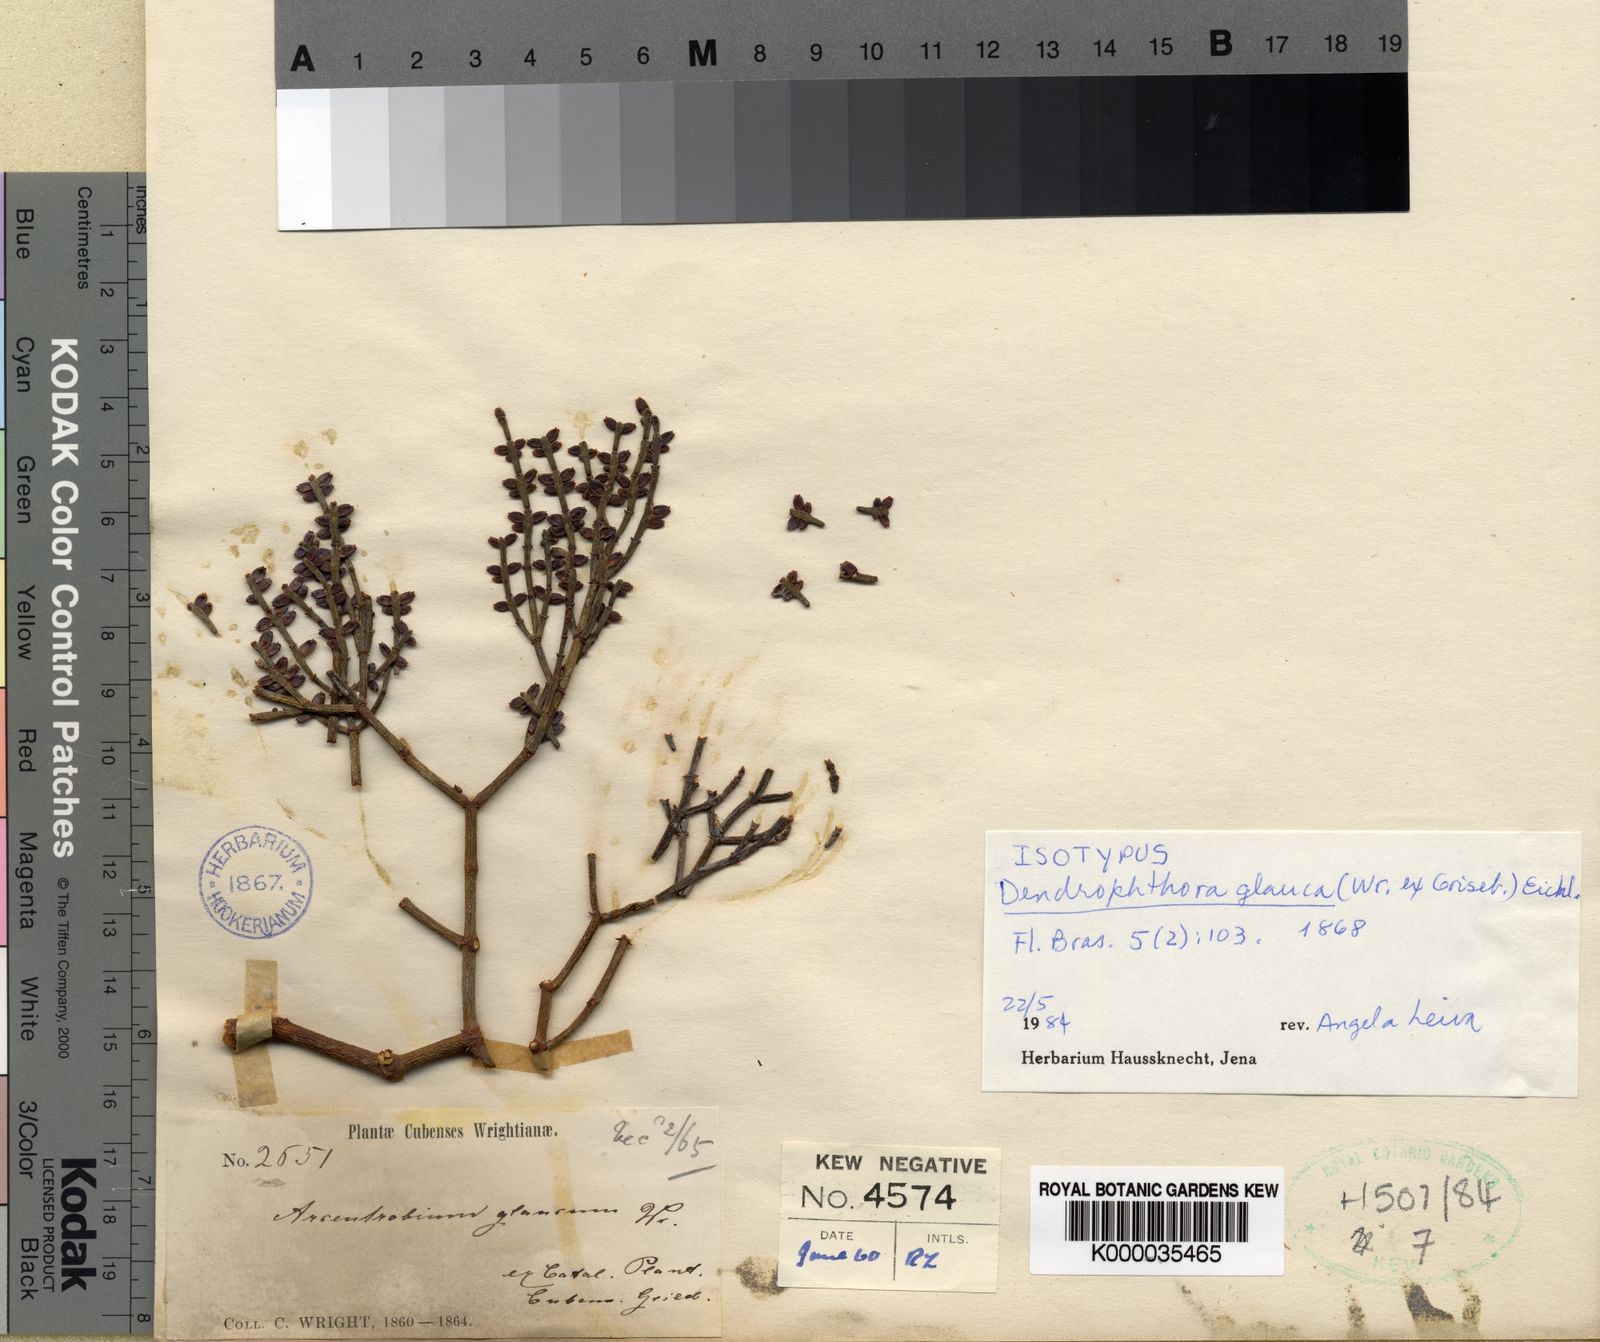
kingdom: Plantae
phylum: Tracheophyta
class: Magnoliopsida
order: Santalales
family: Viscaceae
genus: Dendrophthora
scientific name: Dendrophthora glauca
